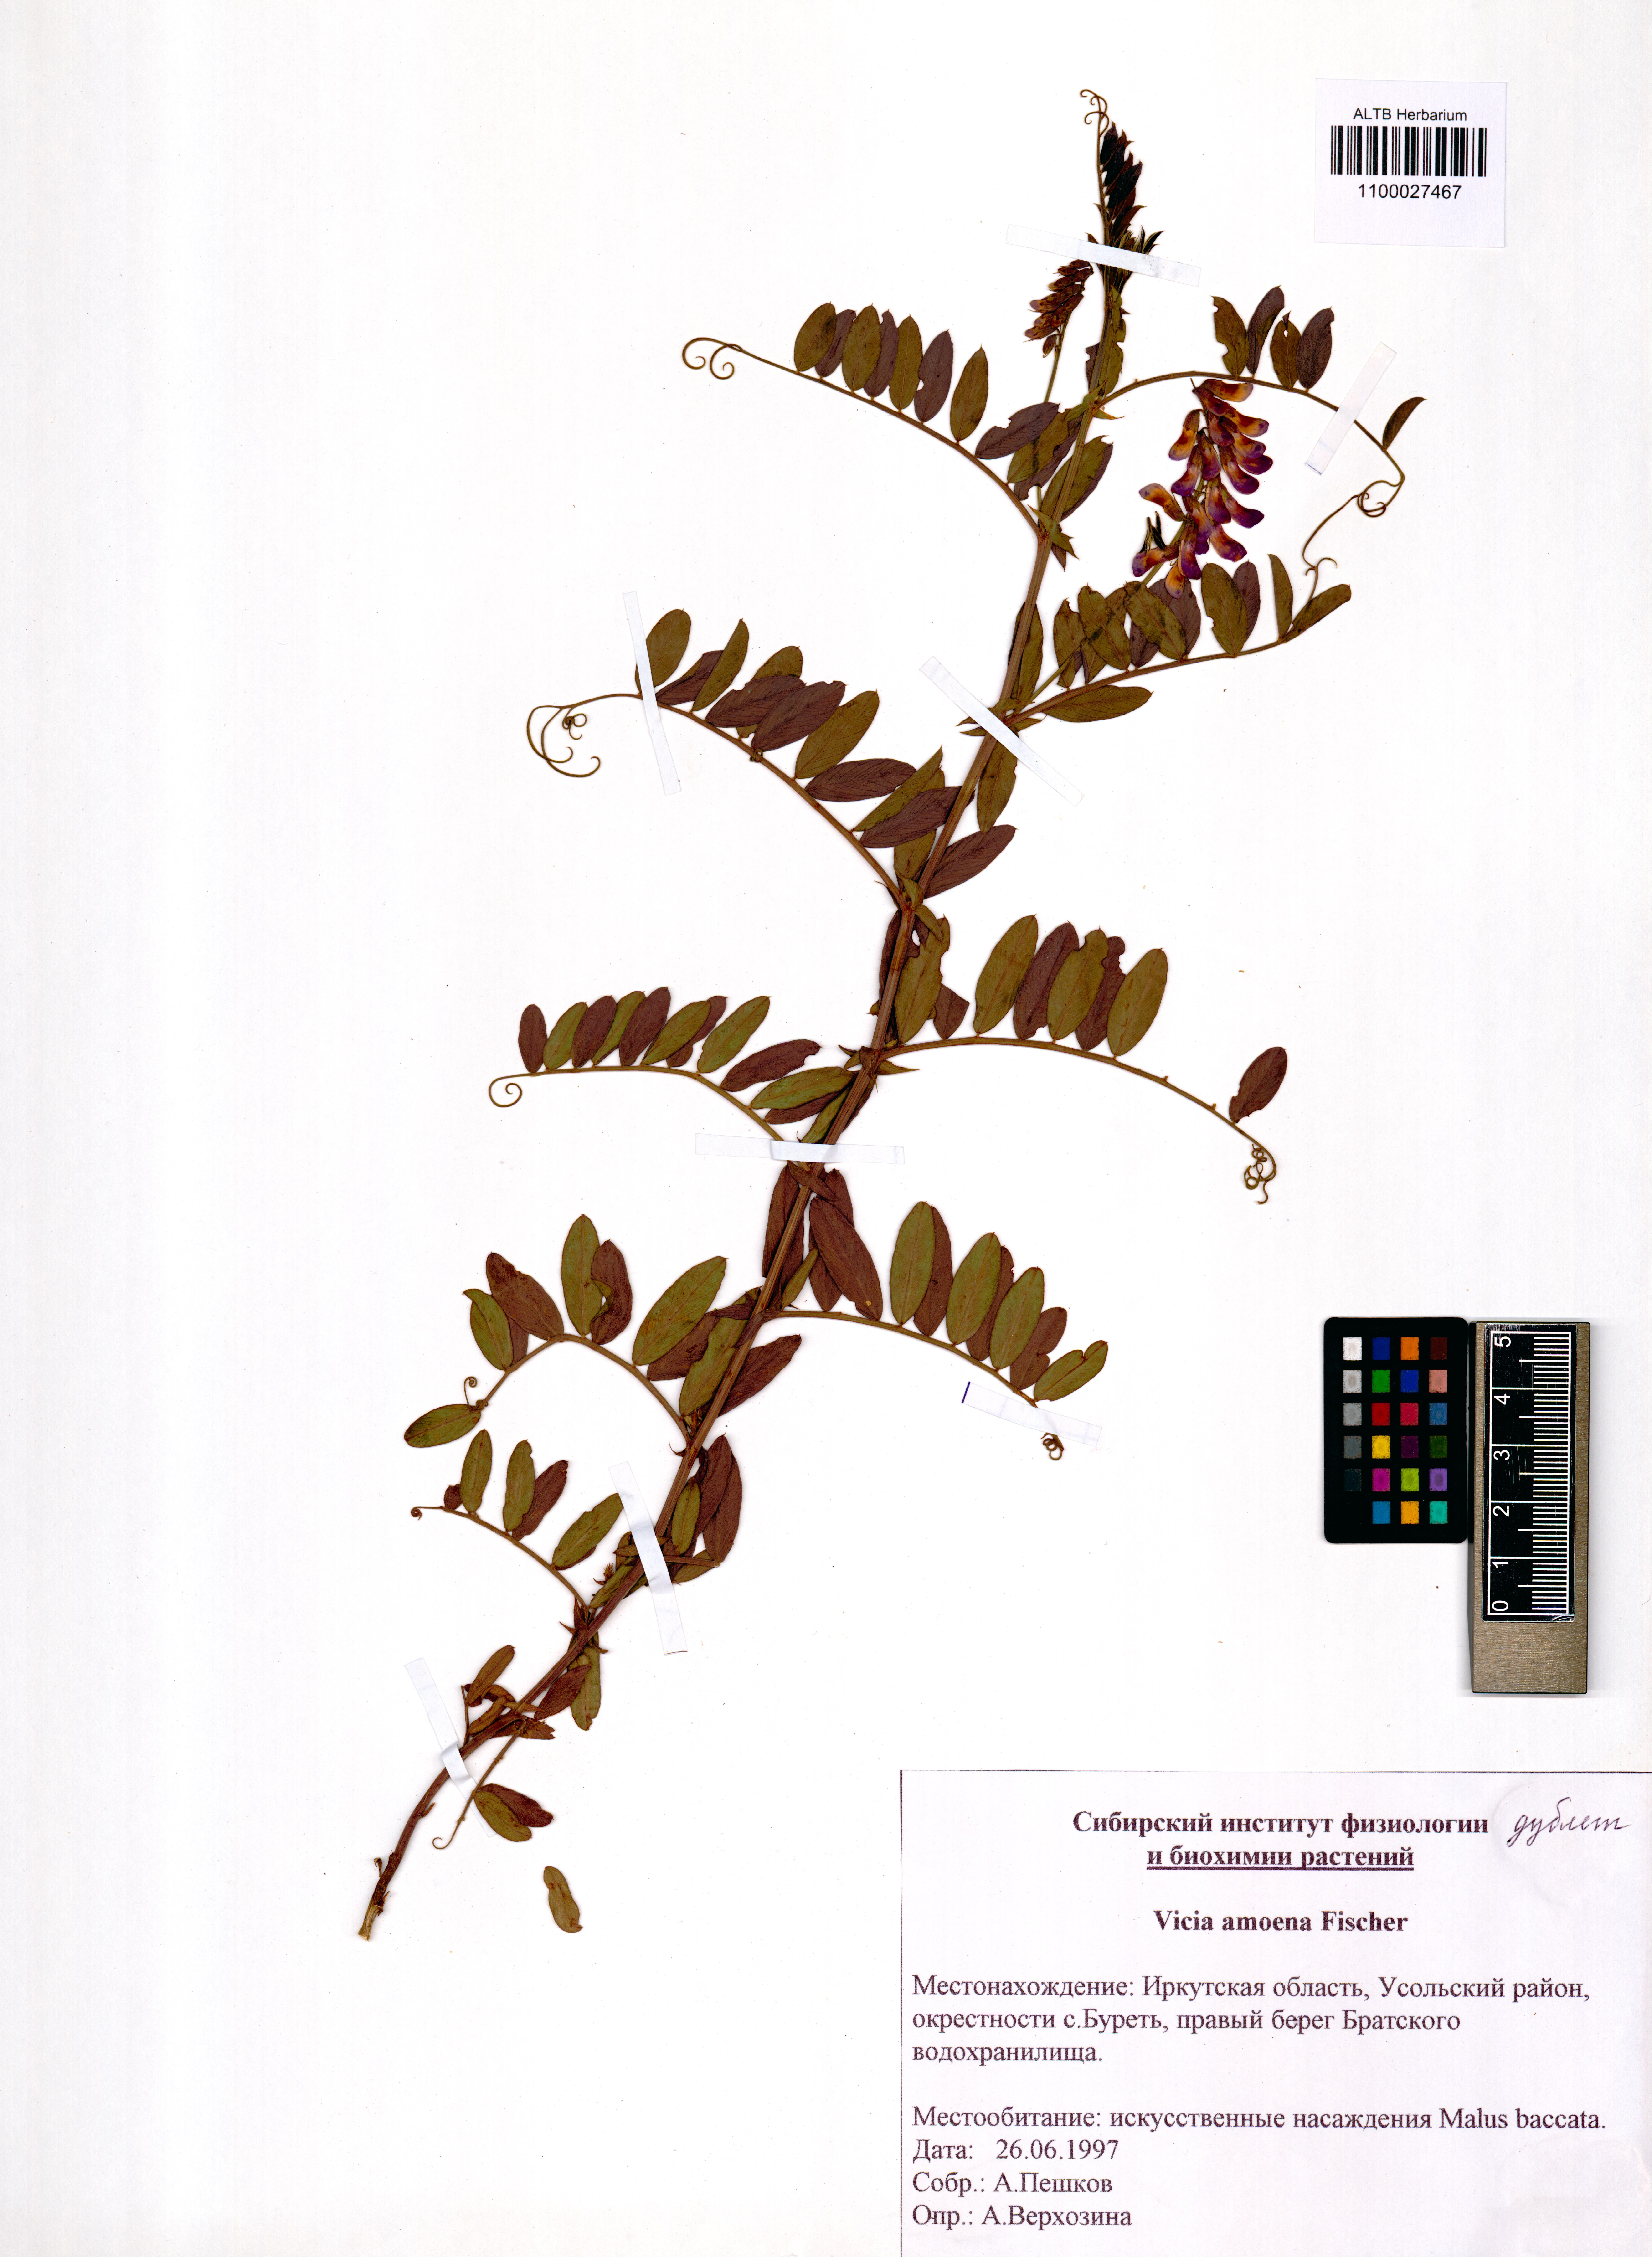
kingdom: Plantae
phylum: Tracheophyta
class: Magnoliopsida
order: Fabales
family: Fabaceae
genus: Vicia
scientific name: Vicia amoena
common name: Cheder ebs
